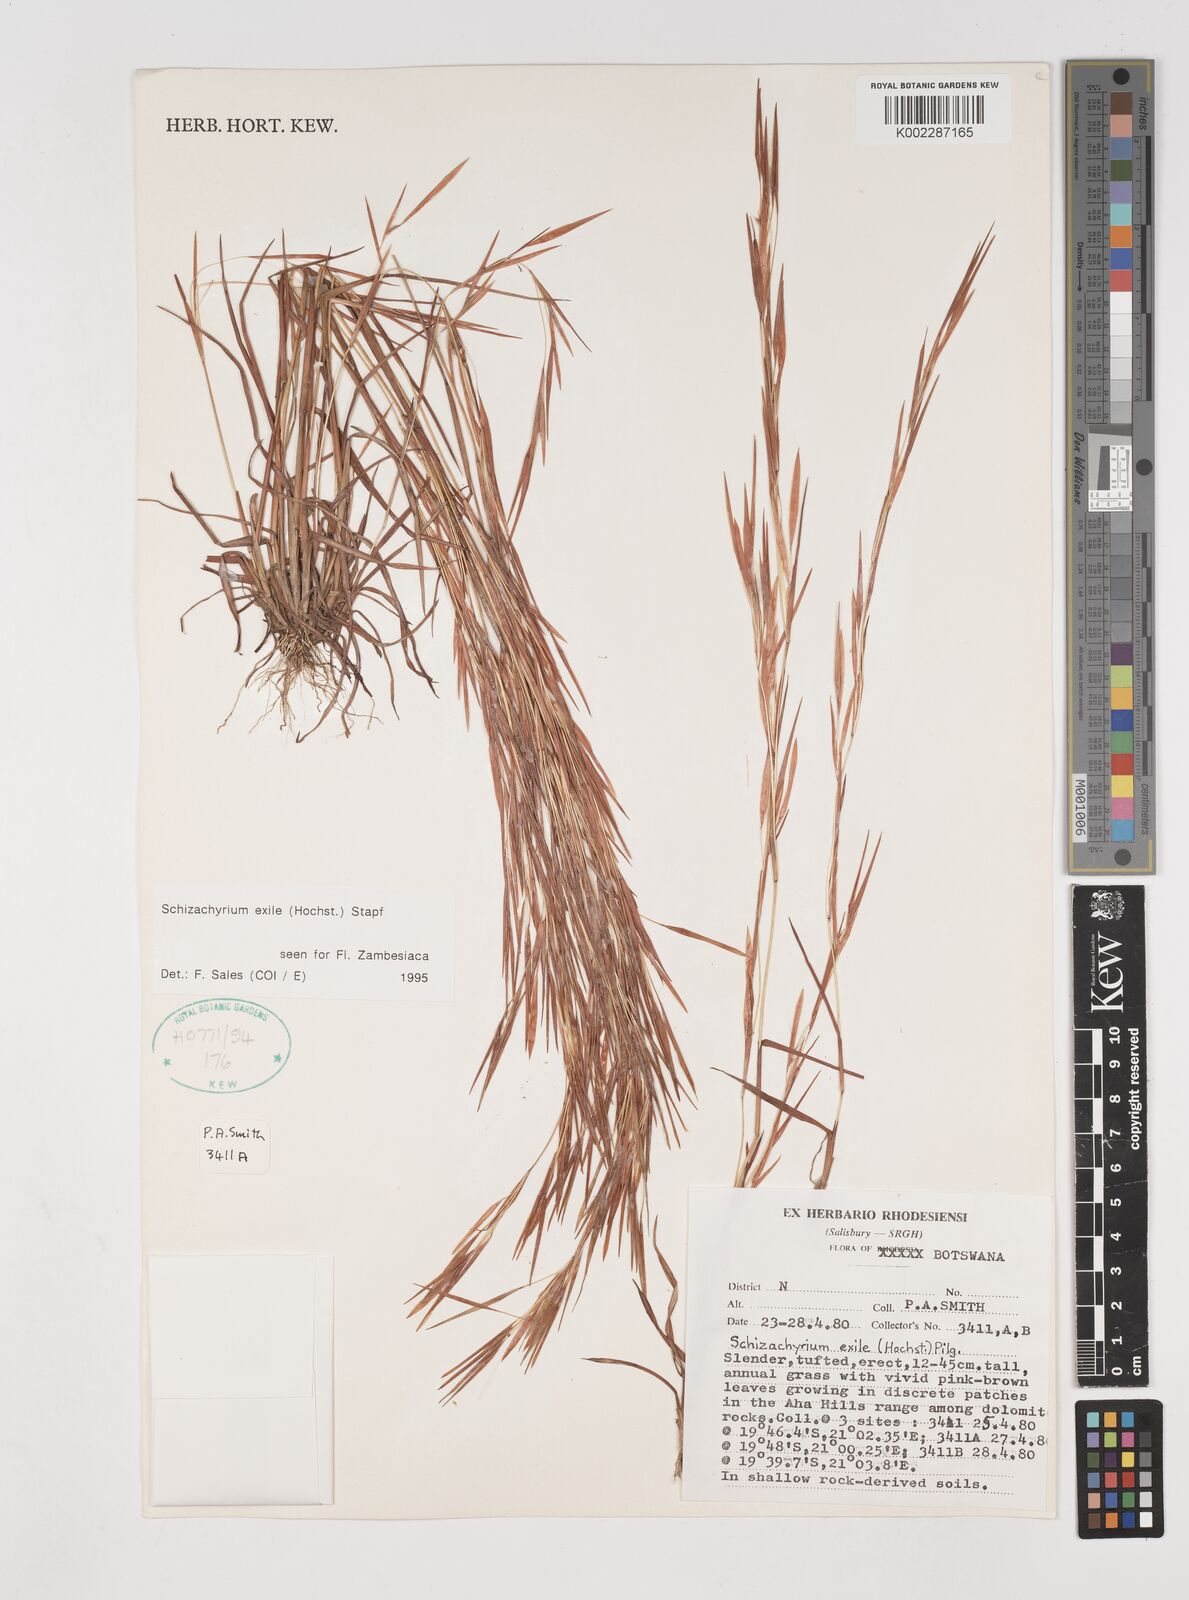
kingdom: Plantae
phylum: Tracheophyta
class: Liliopsida
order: Poales
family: Poaceae
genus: Schizachyrium
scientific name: Schizachyrium exile
